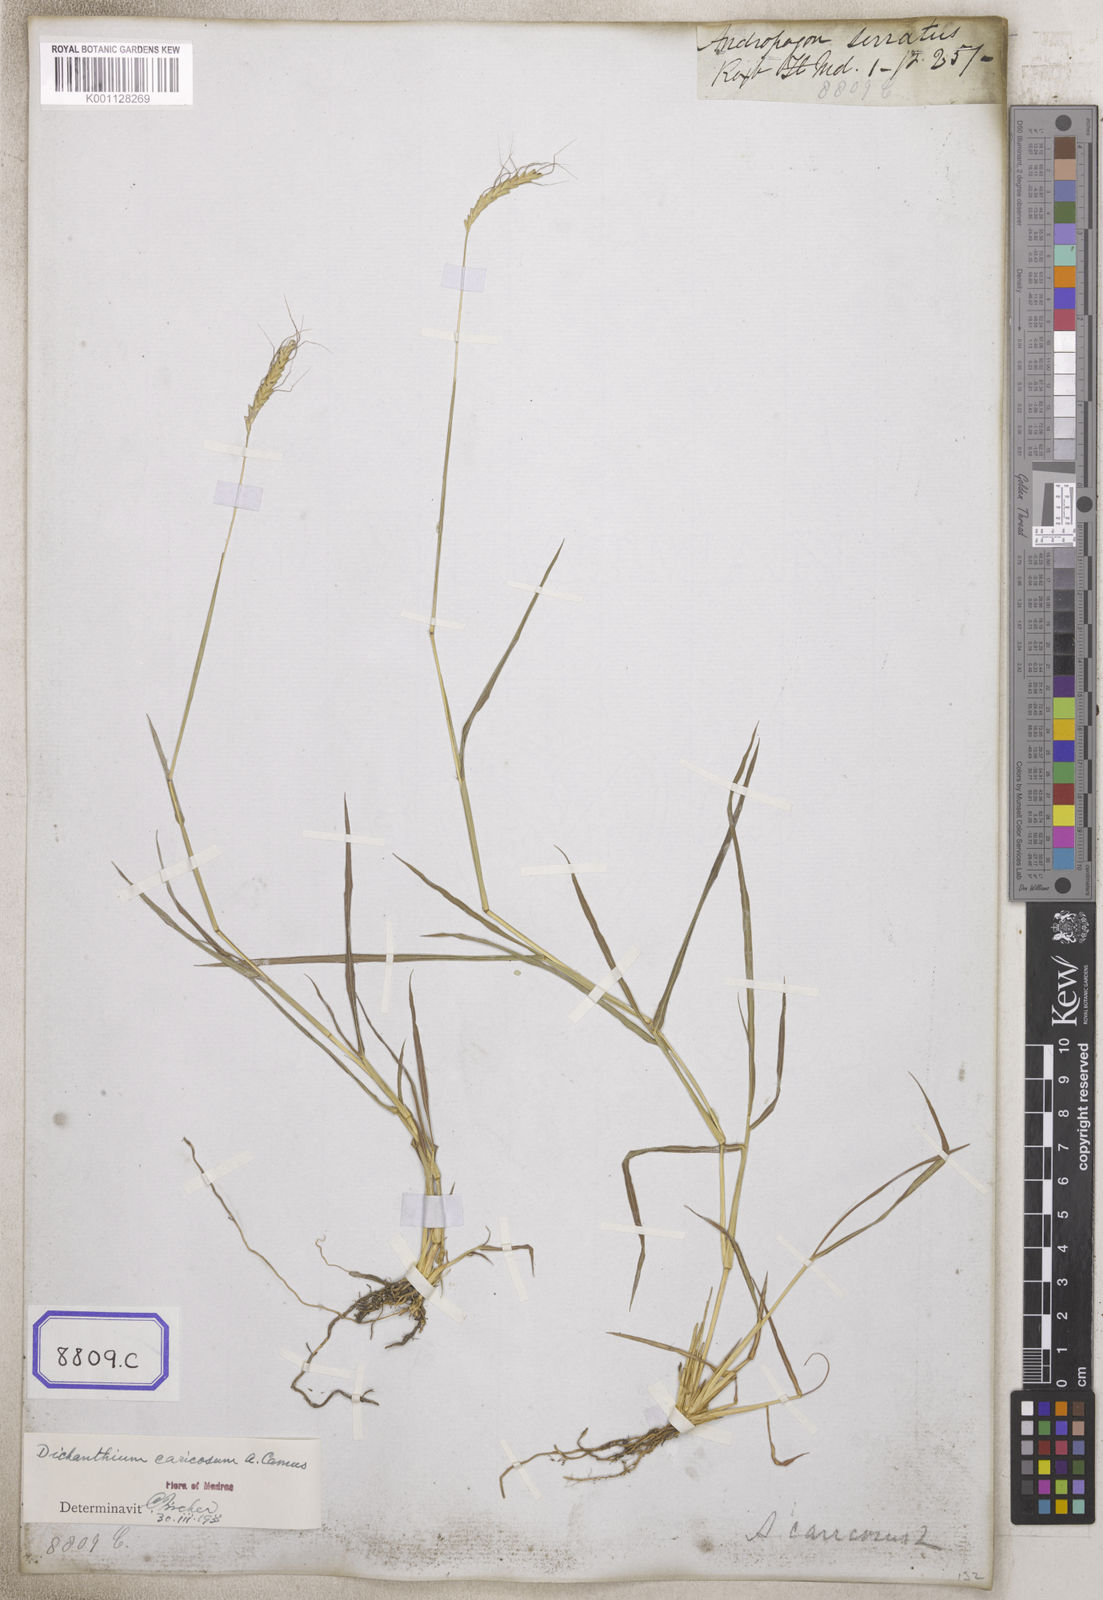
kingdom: Plantae
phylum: Tracheophyta
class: Liliopsida
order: Poales
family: Poaceae
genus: Andropogon
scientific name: Andropogon
